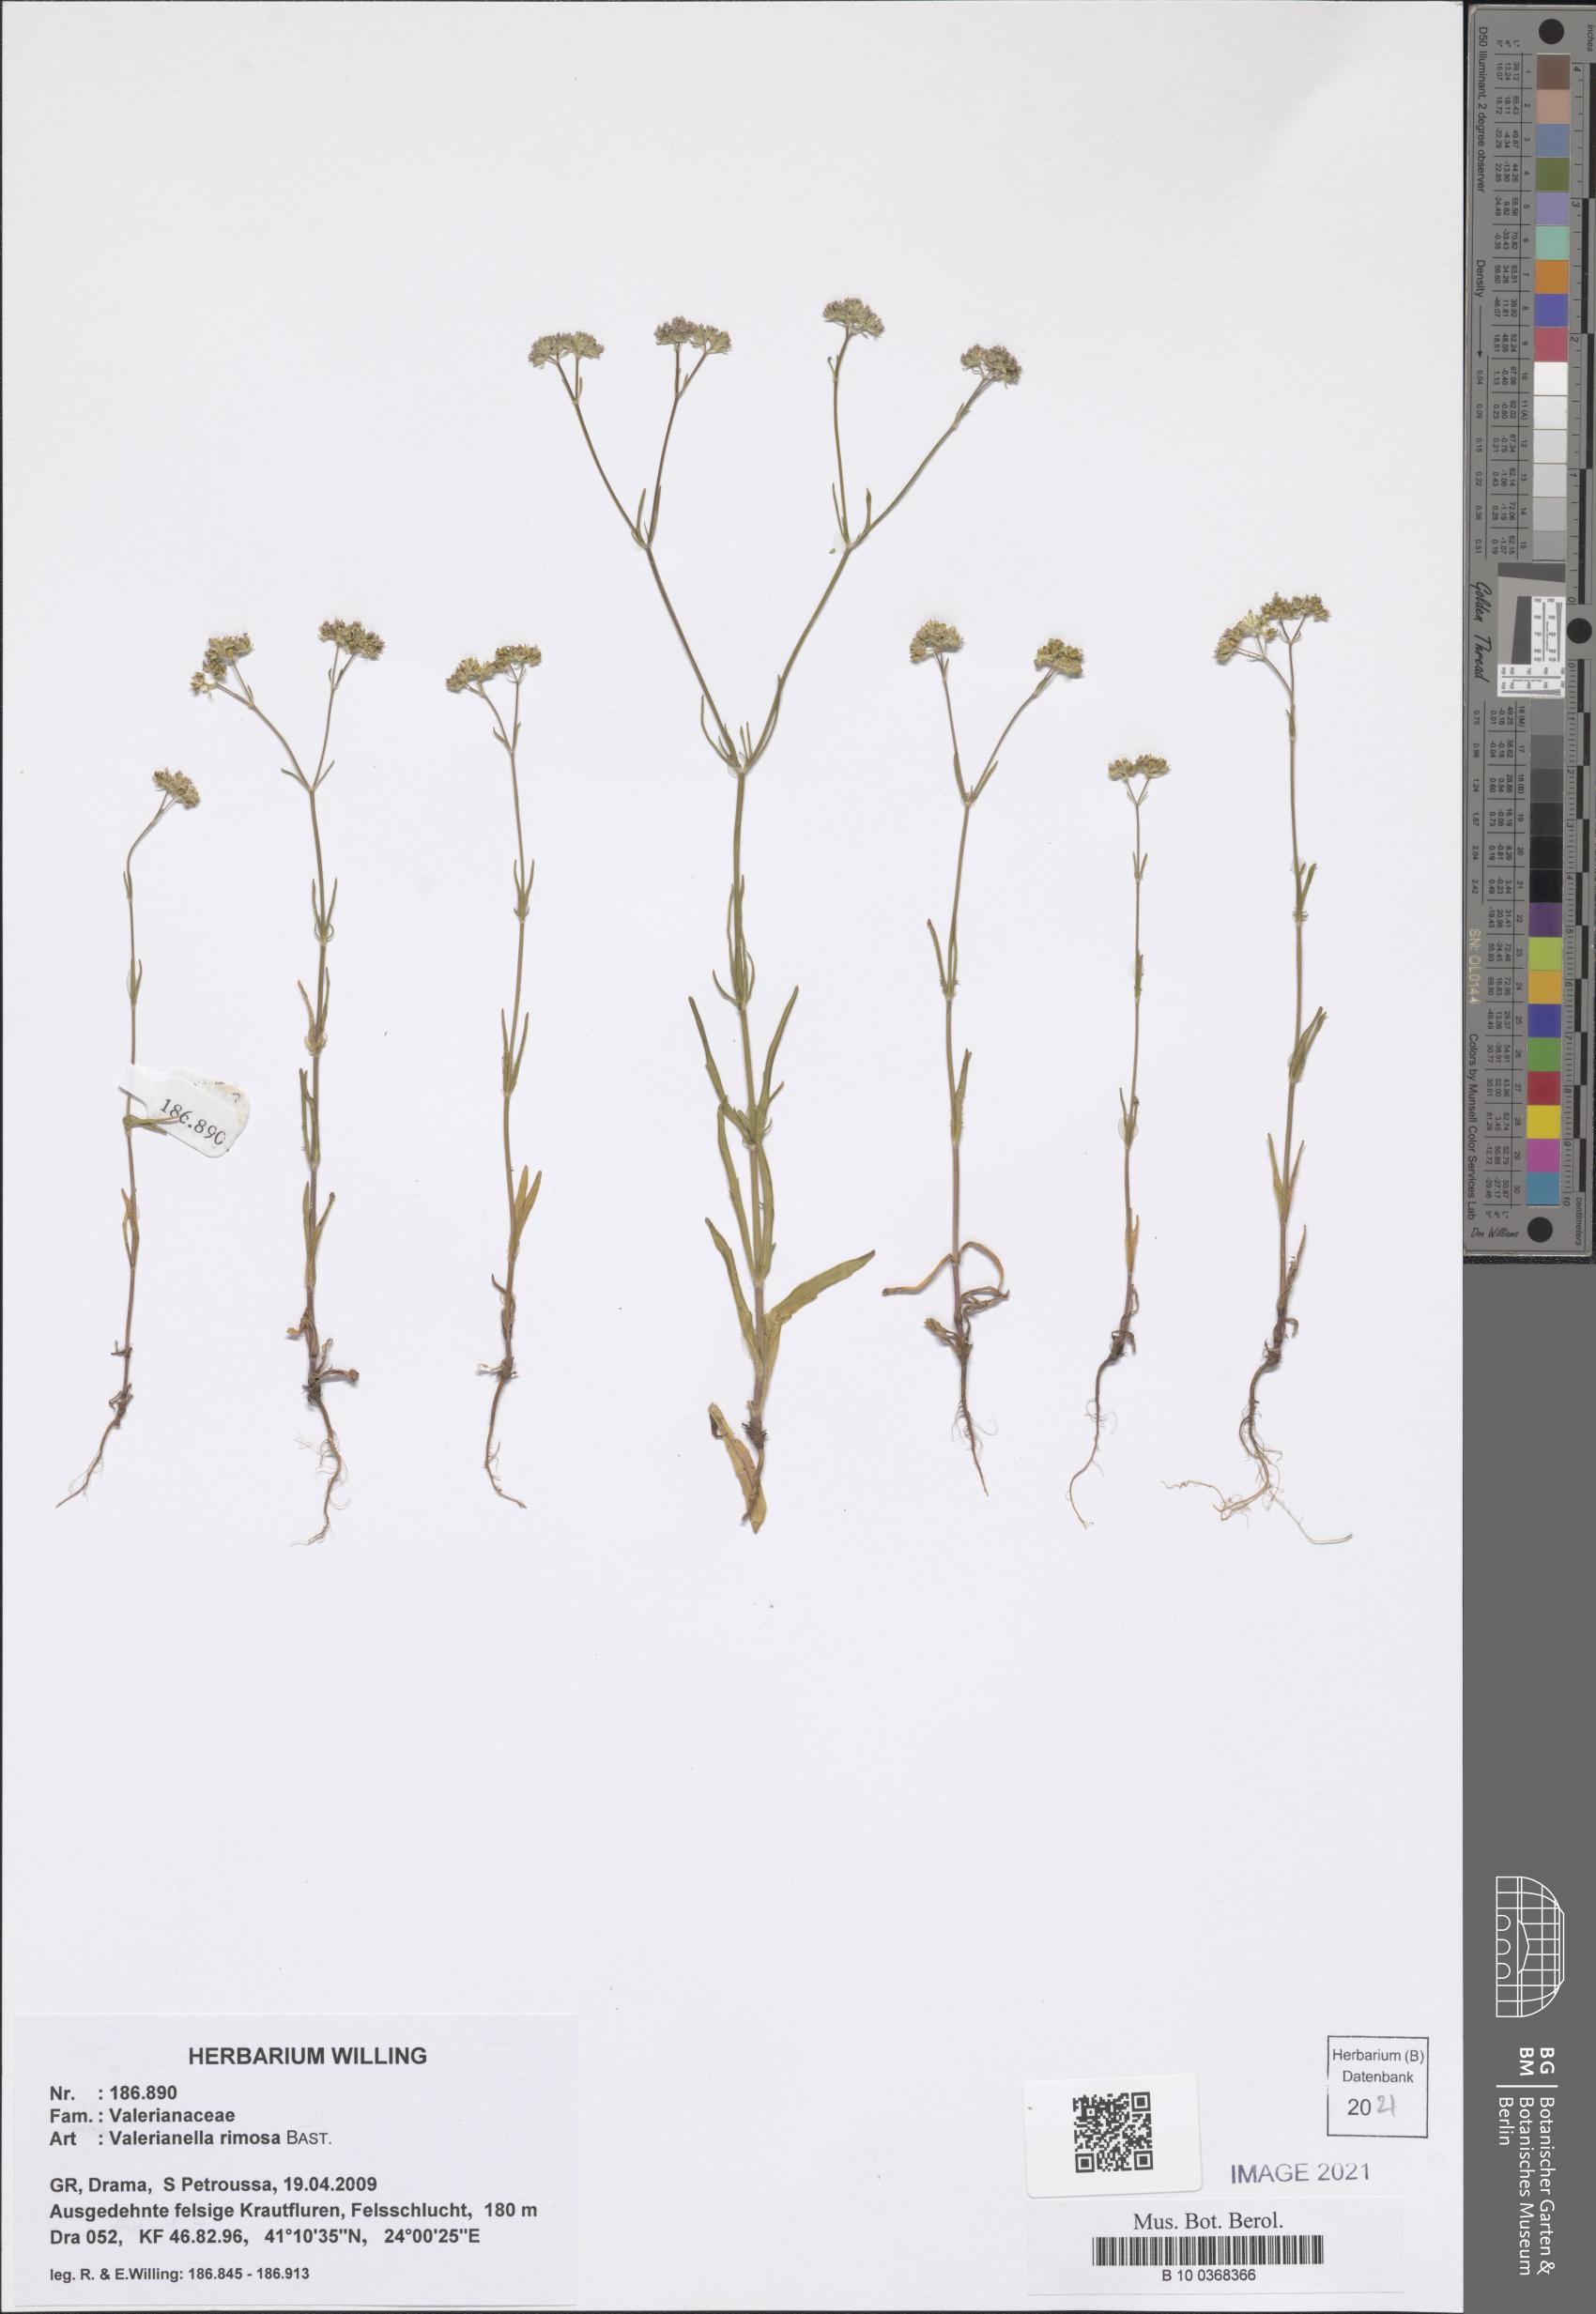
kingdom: Plantae
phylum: Tracheophyta
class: Magnoliopsida
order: Dipsacales
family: Caprifoliaceae
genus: Valerianella
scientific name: Valerianella rimosa
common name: Broad-fruited cornsalad
